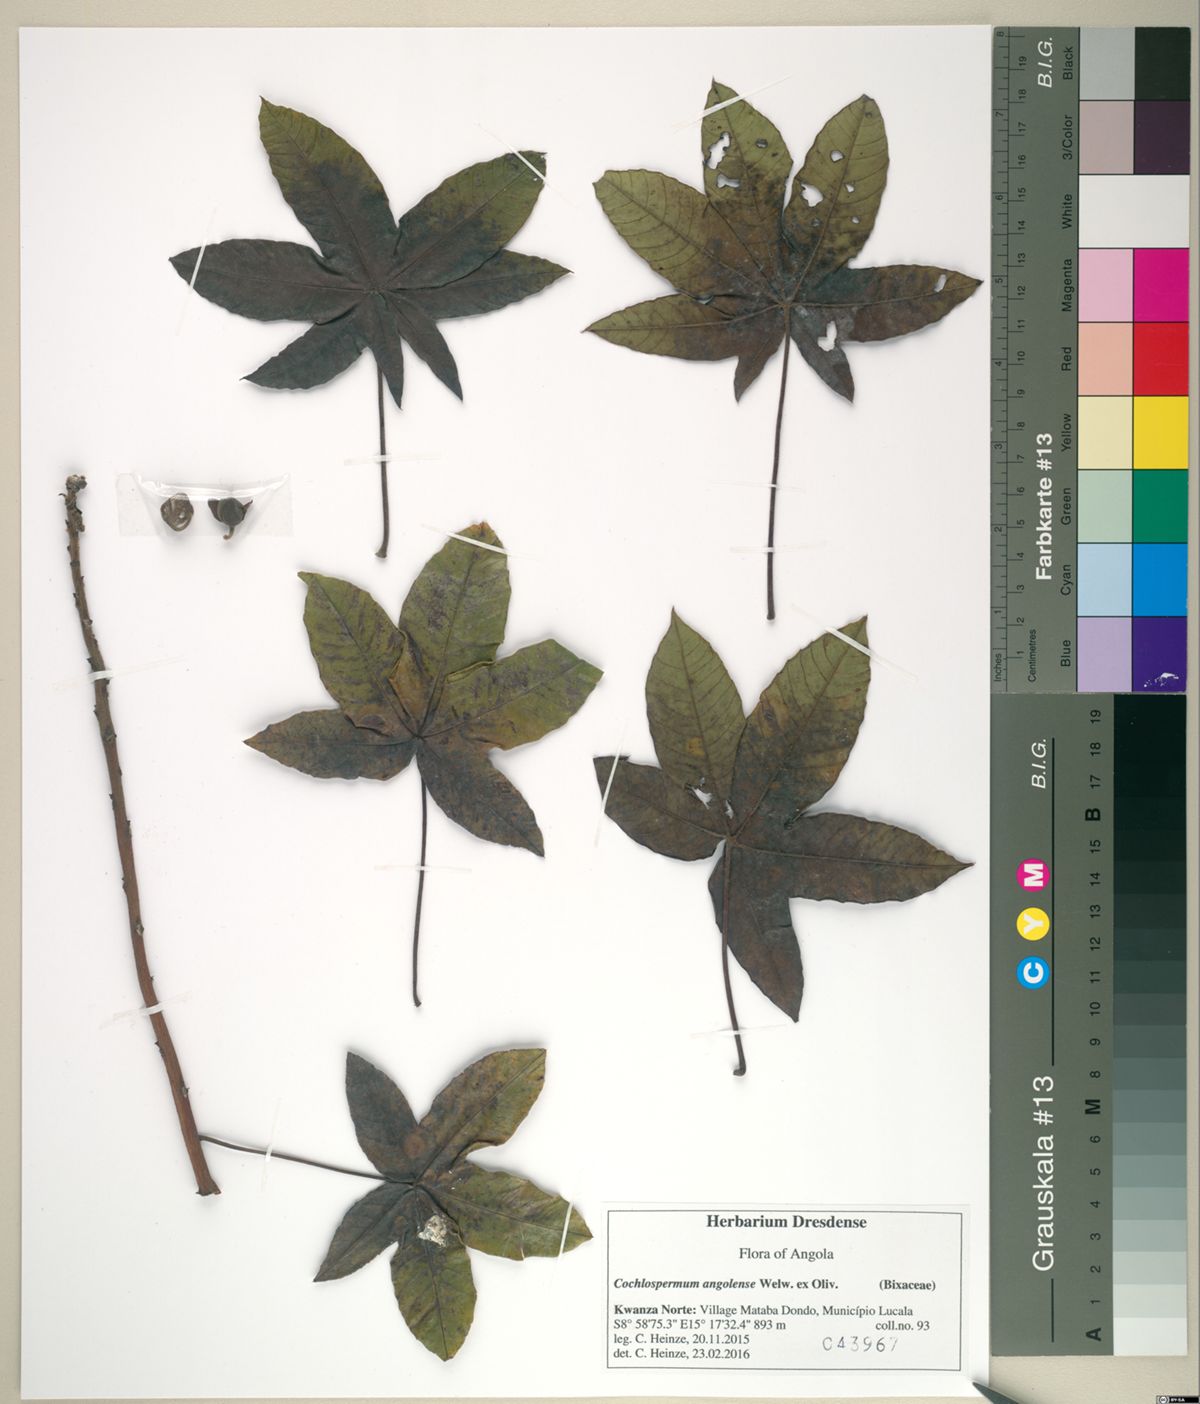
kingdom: Plantae
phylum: Tracheophyta
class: Magnoliopsida
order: Malvales
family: Cochlospermaceae
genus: Cochlospermum
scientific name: Cochlospermum angolense
